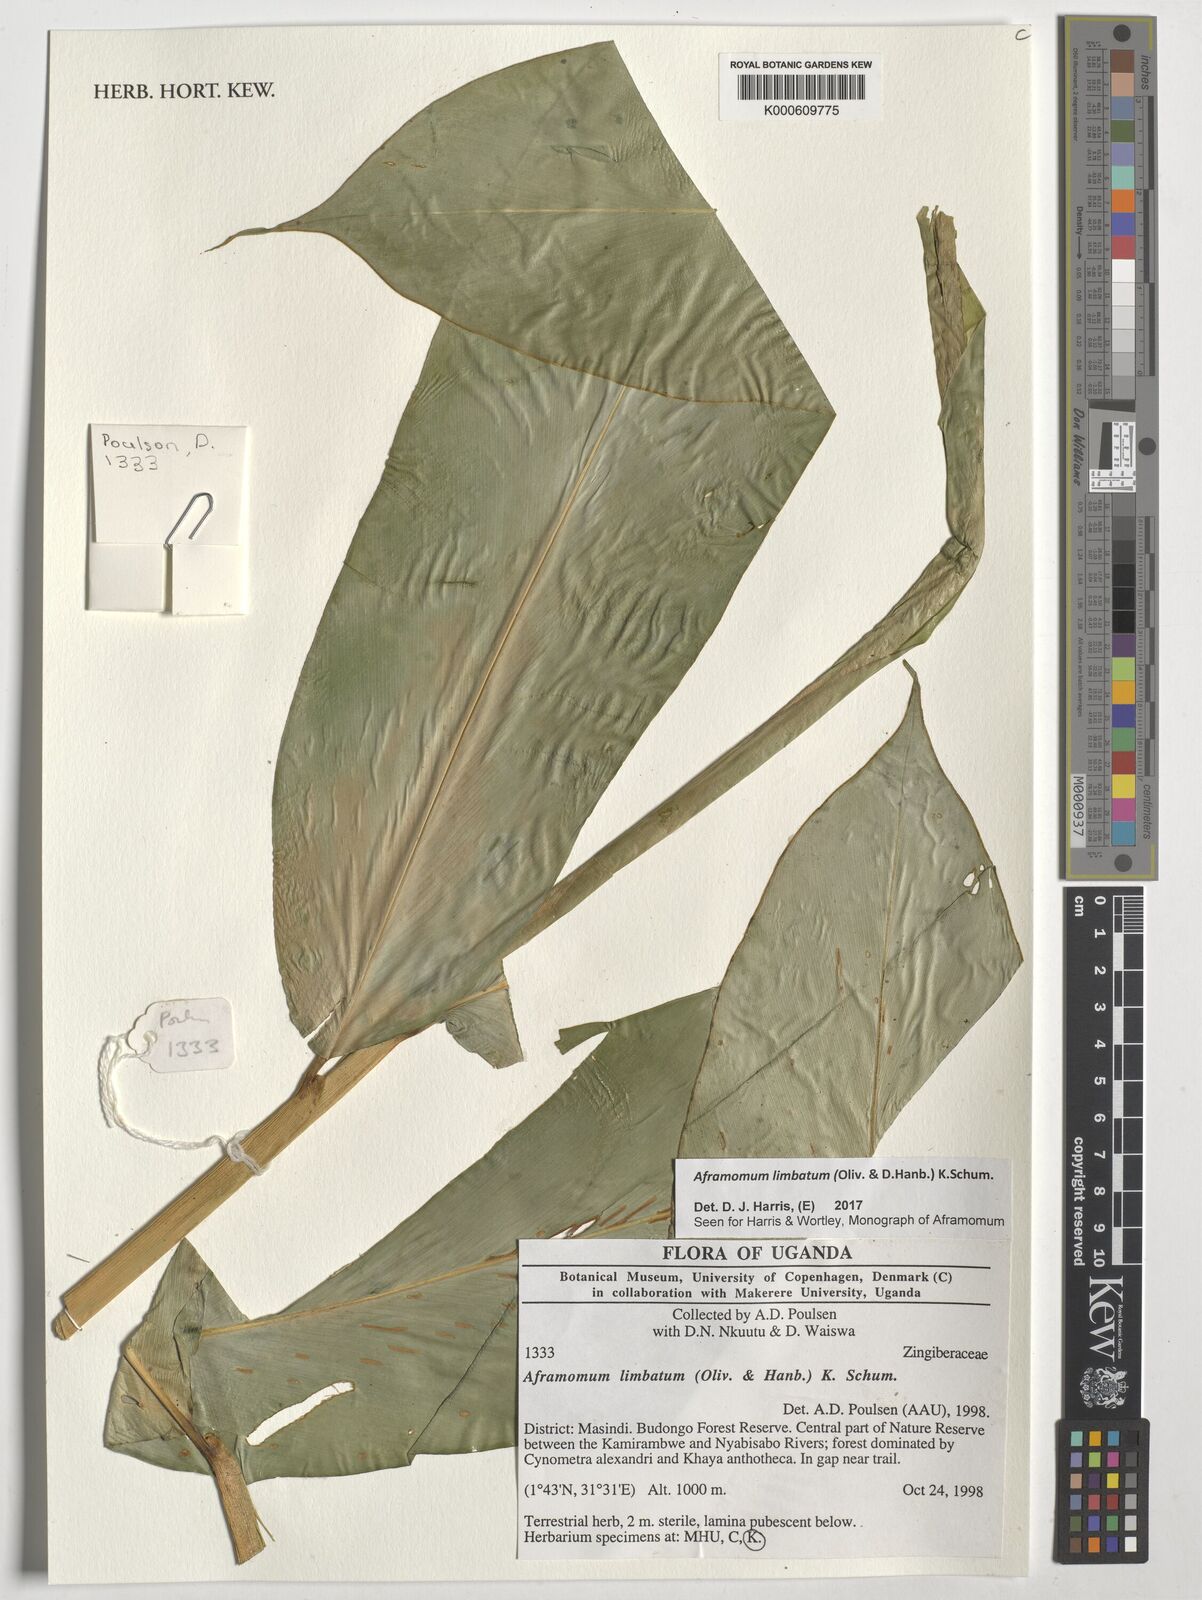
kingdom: Plantae
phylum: Tracheophyta
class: Liliopsida
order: Zingiberales
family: Zingiberaceae
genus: Aframomum
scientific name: Aframomum limbatum
